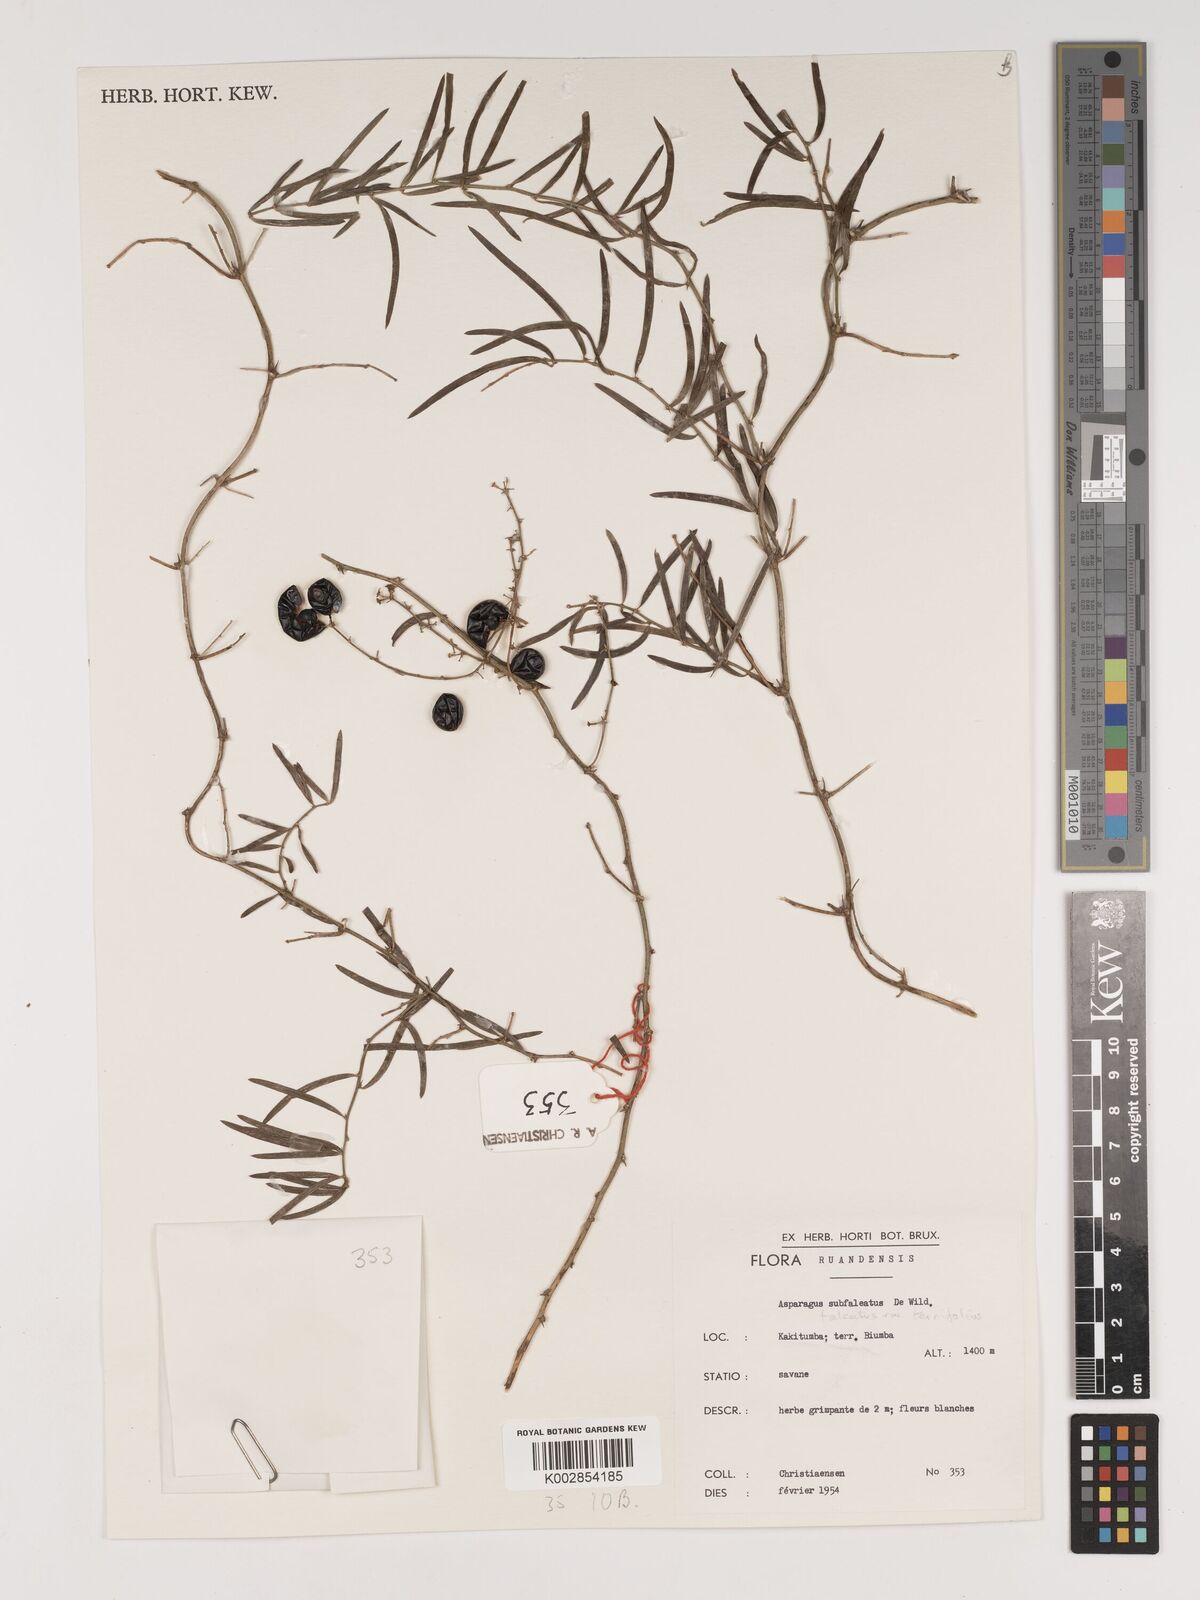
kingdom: Plantae
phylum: Tracheophyta
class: Liliopsida
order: Asparagales
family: Asparagaceae
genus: Asparagus
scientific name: Asparagus falcatus
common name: Asparagus
